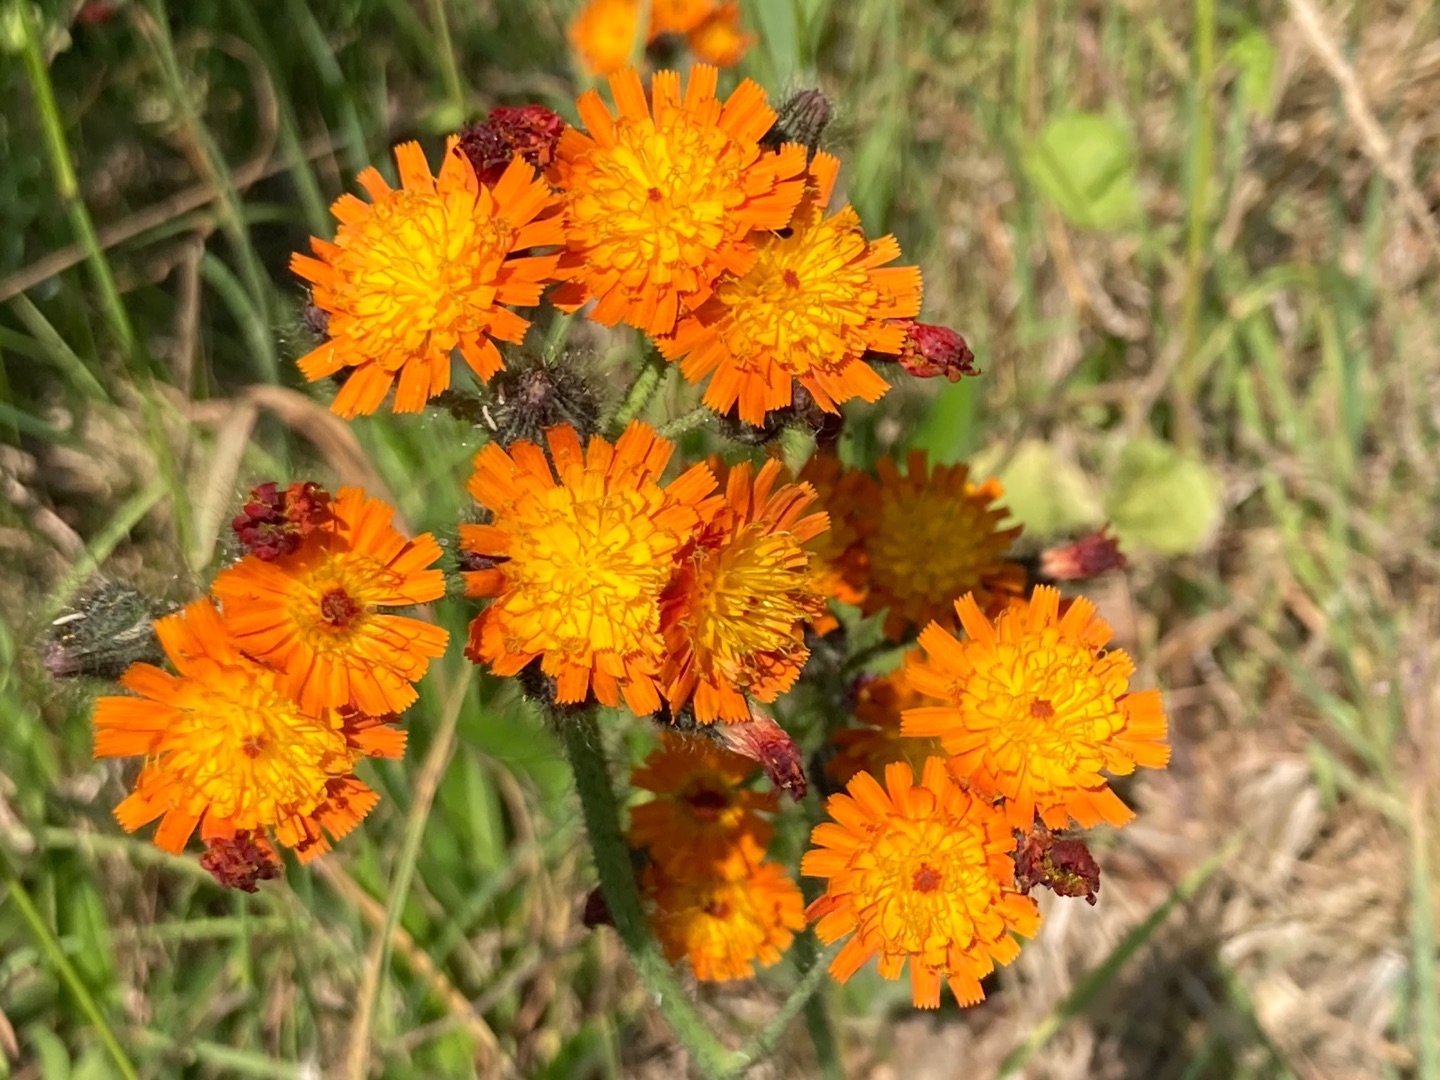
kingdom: Plantae
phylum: Tracheophyta
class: Magnoliopsida
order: Asterales
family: Asteraceae
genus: Pilosella
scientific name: Pilosella aurantiaca
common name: Pomerans-høgeurt
